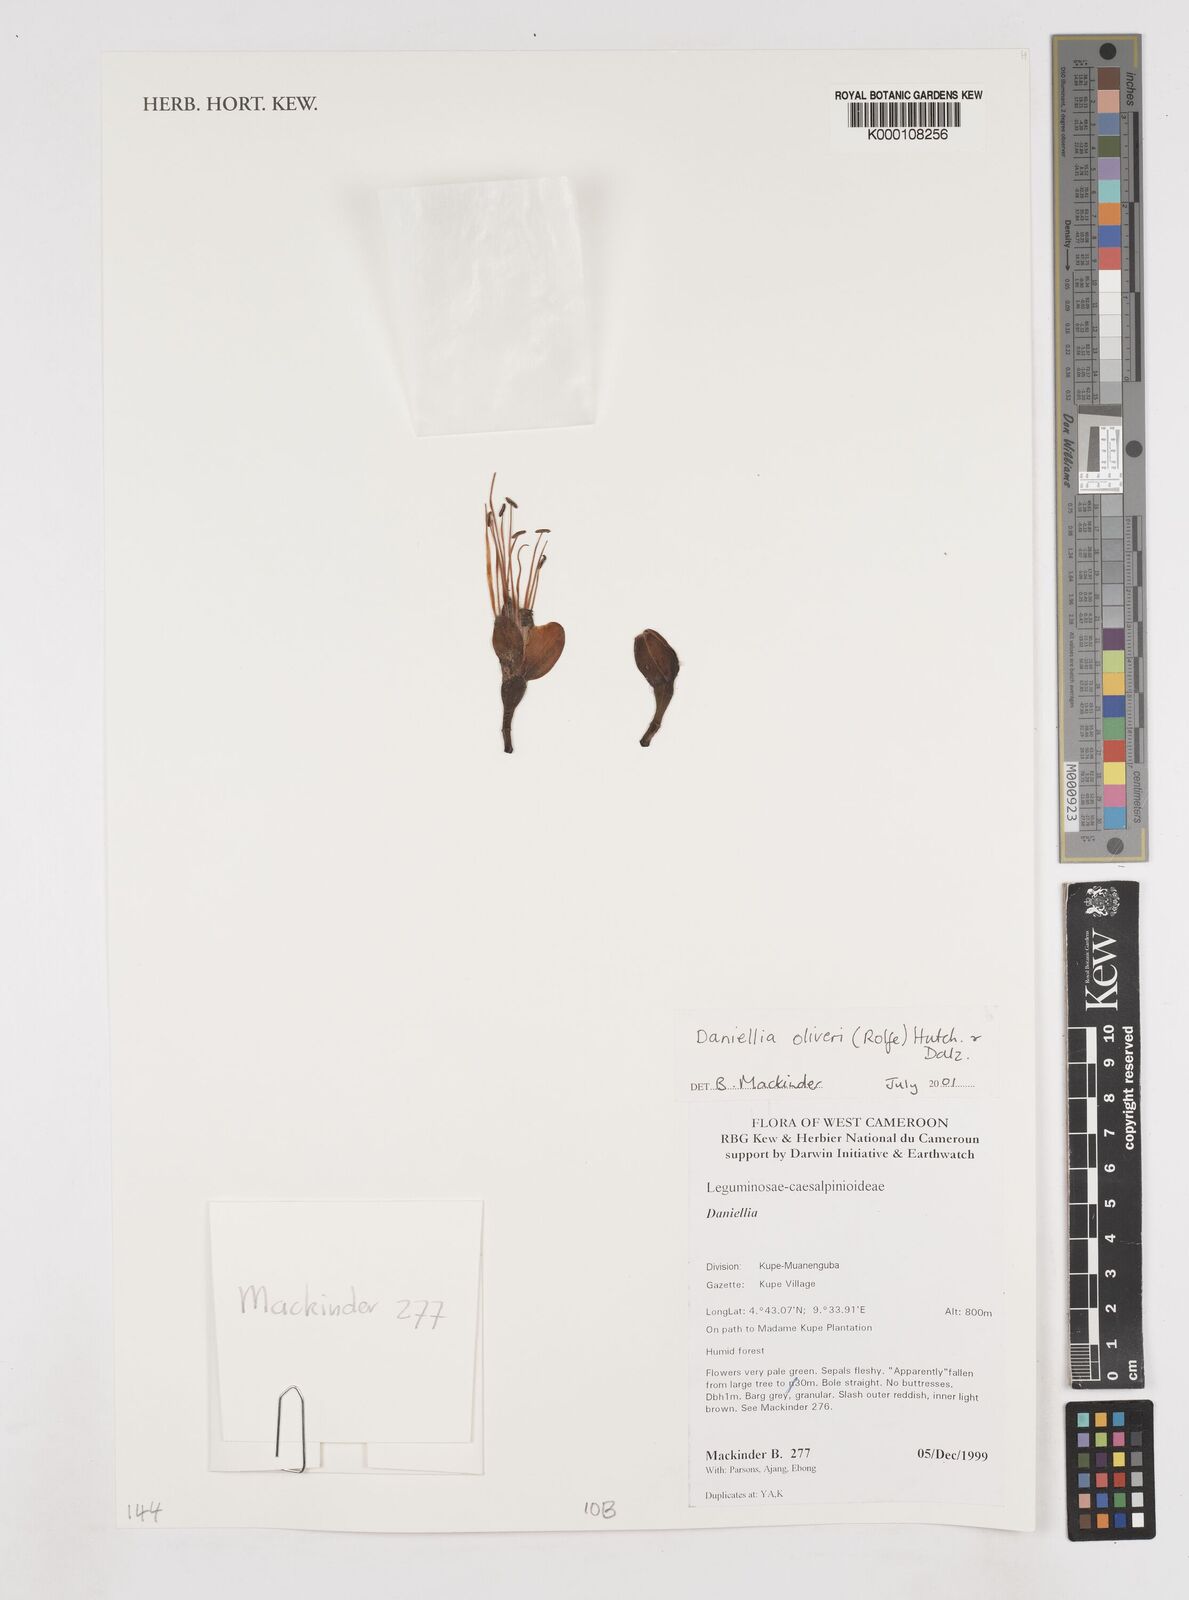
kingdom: Plantae
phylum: Tracheophyta
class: Magnoliopsida
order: Fabales
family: Fabaceae
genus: Daniellia
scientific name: Daniellia oliveri
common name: African copaiba balsamtree
